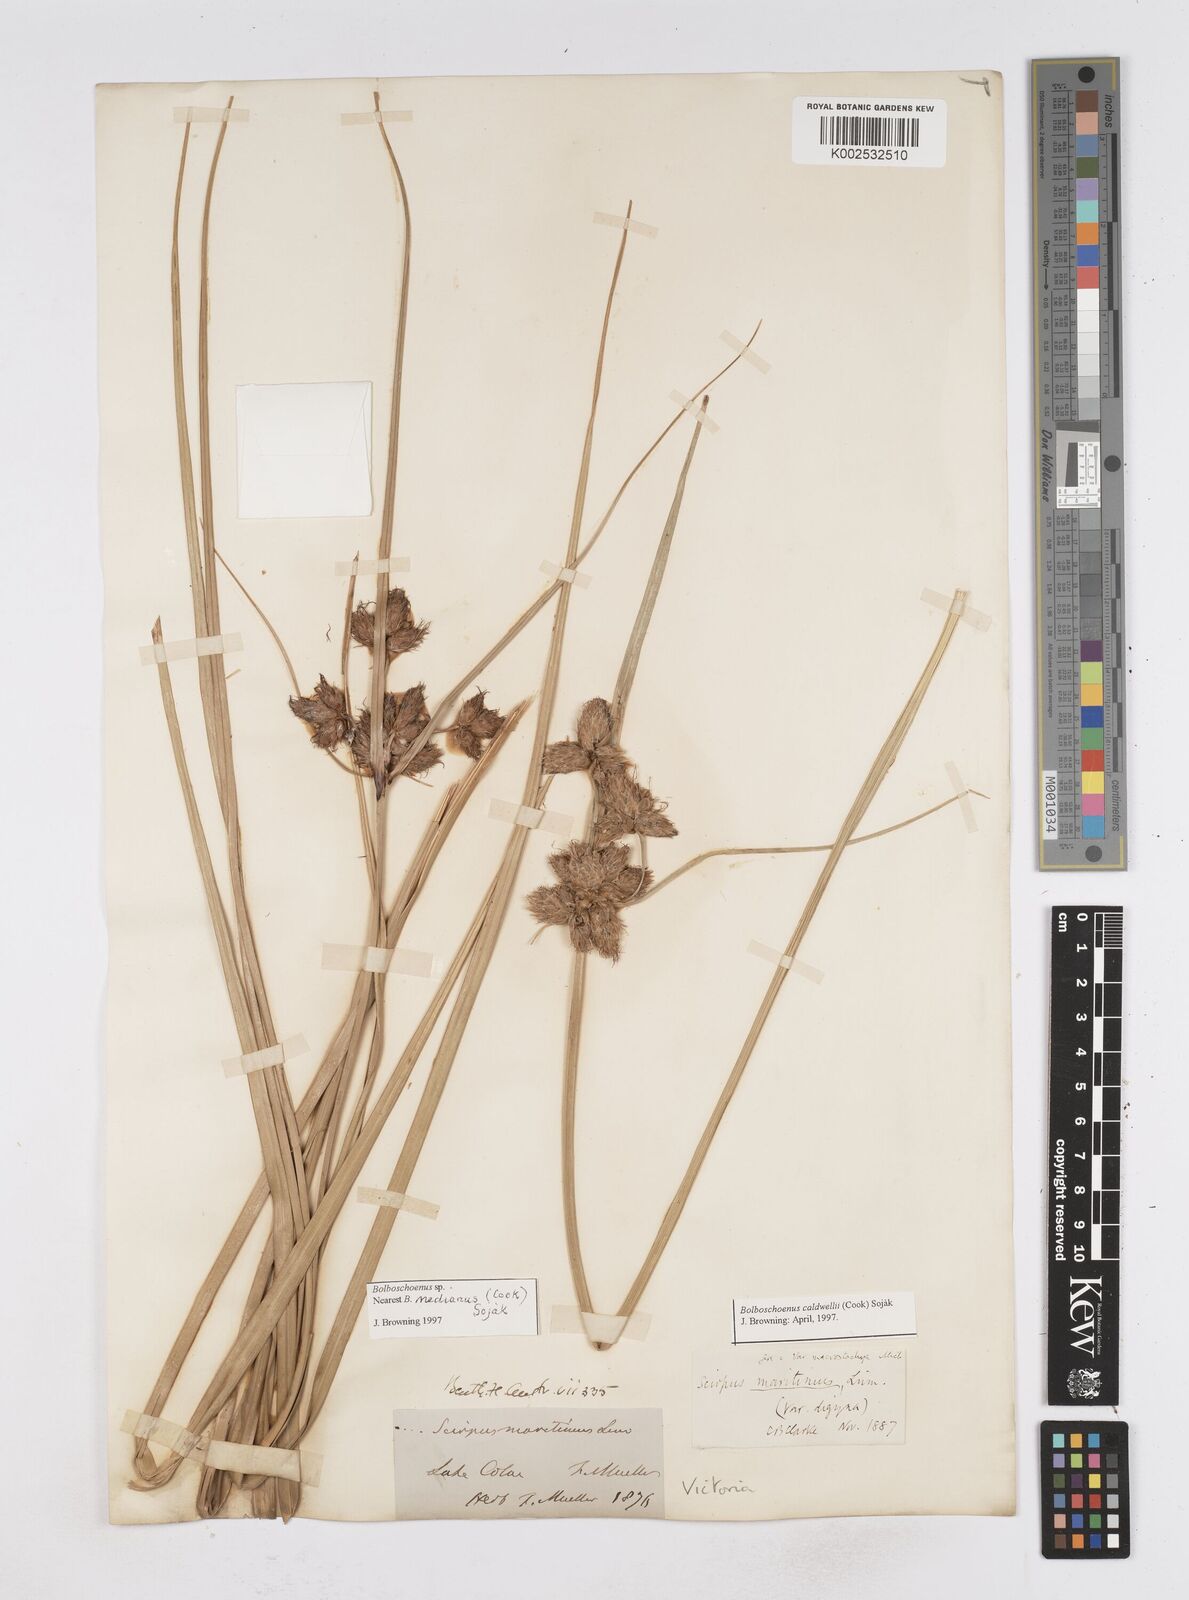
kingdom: Plantae
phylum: Tracheophyta
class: Liliopsida
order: Poales
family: Cyperaceae
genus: Bolboschoenus
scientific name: Bolboschoenus maritimus
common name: Sea club-rush
